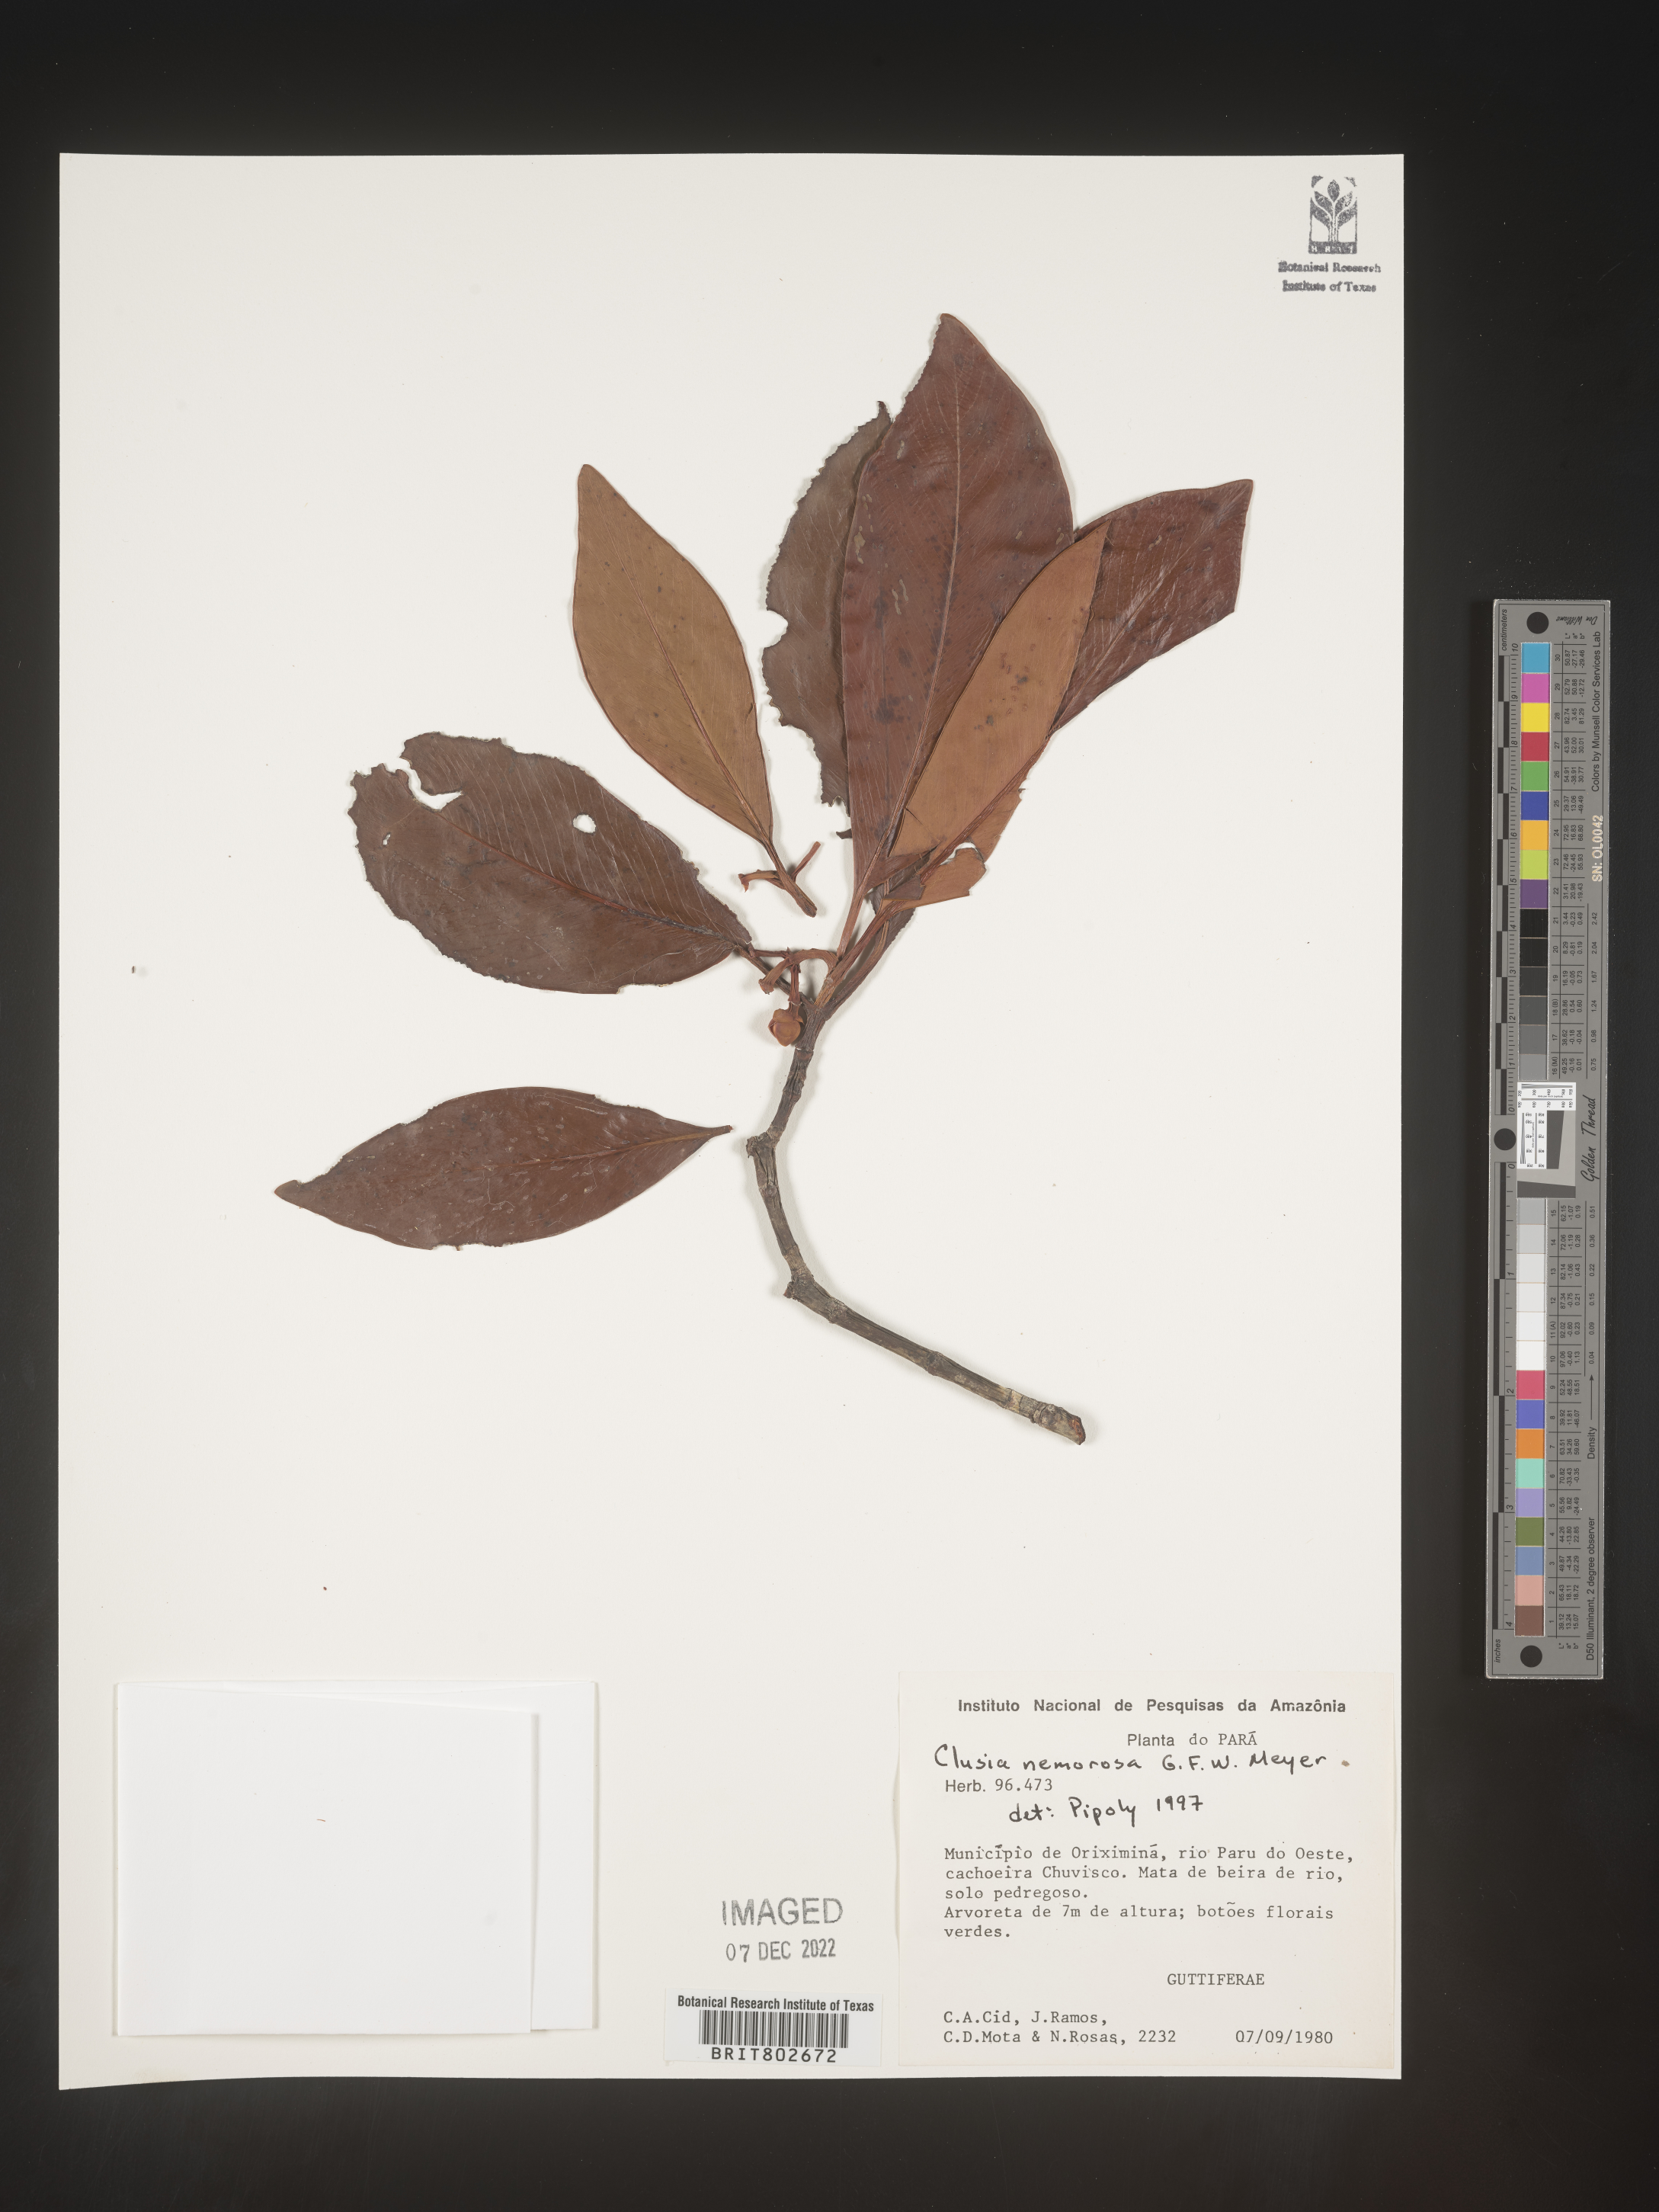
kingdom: Plantae
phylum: Tracheophyta
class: Magnoliopsida
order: Malpighiales
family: Clusiaceae
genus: Clusia
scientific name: Clusia nemorosa
